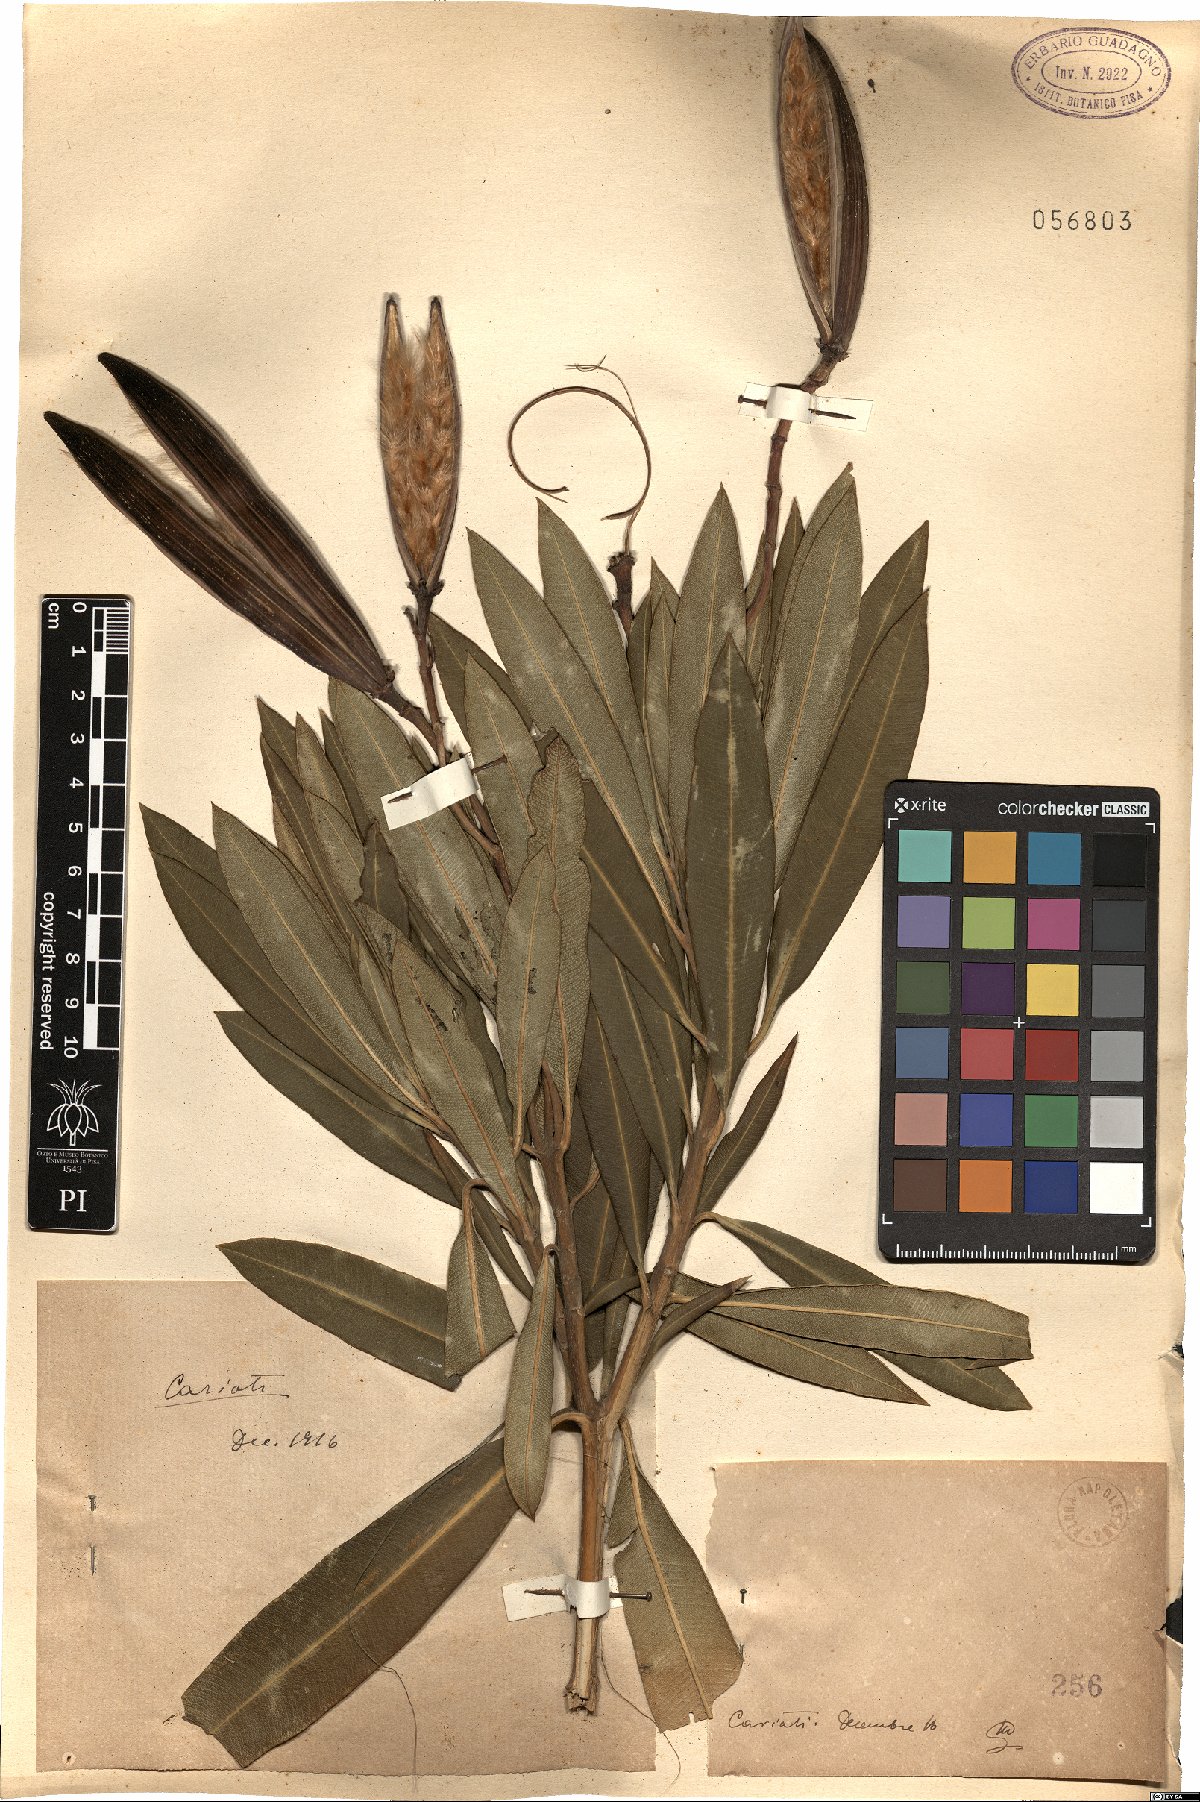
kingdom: Plantae
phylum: Tracheophyta
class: Magnoliopsida
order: Gentianales
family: Apocynaceae
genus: Nerium
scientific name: Nerium
